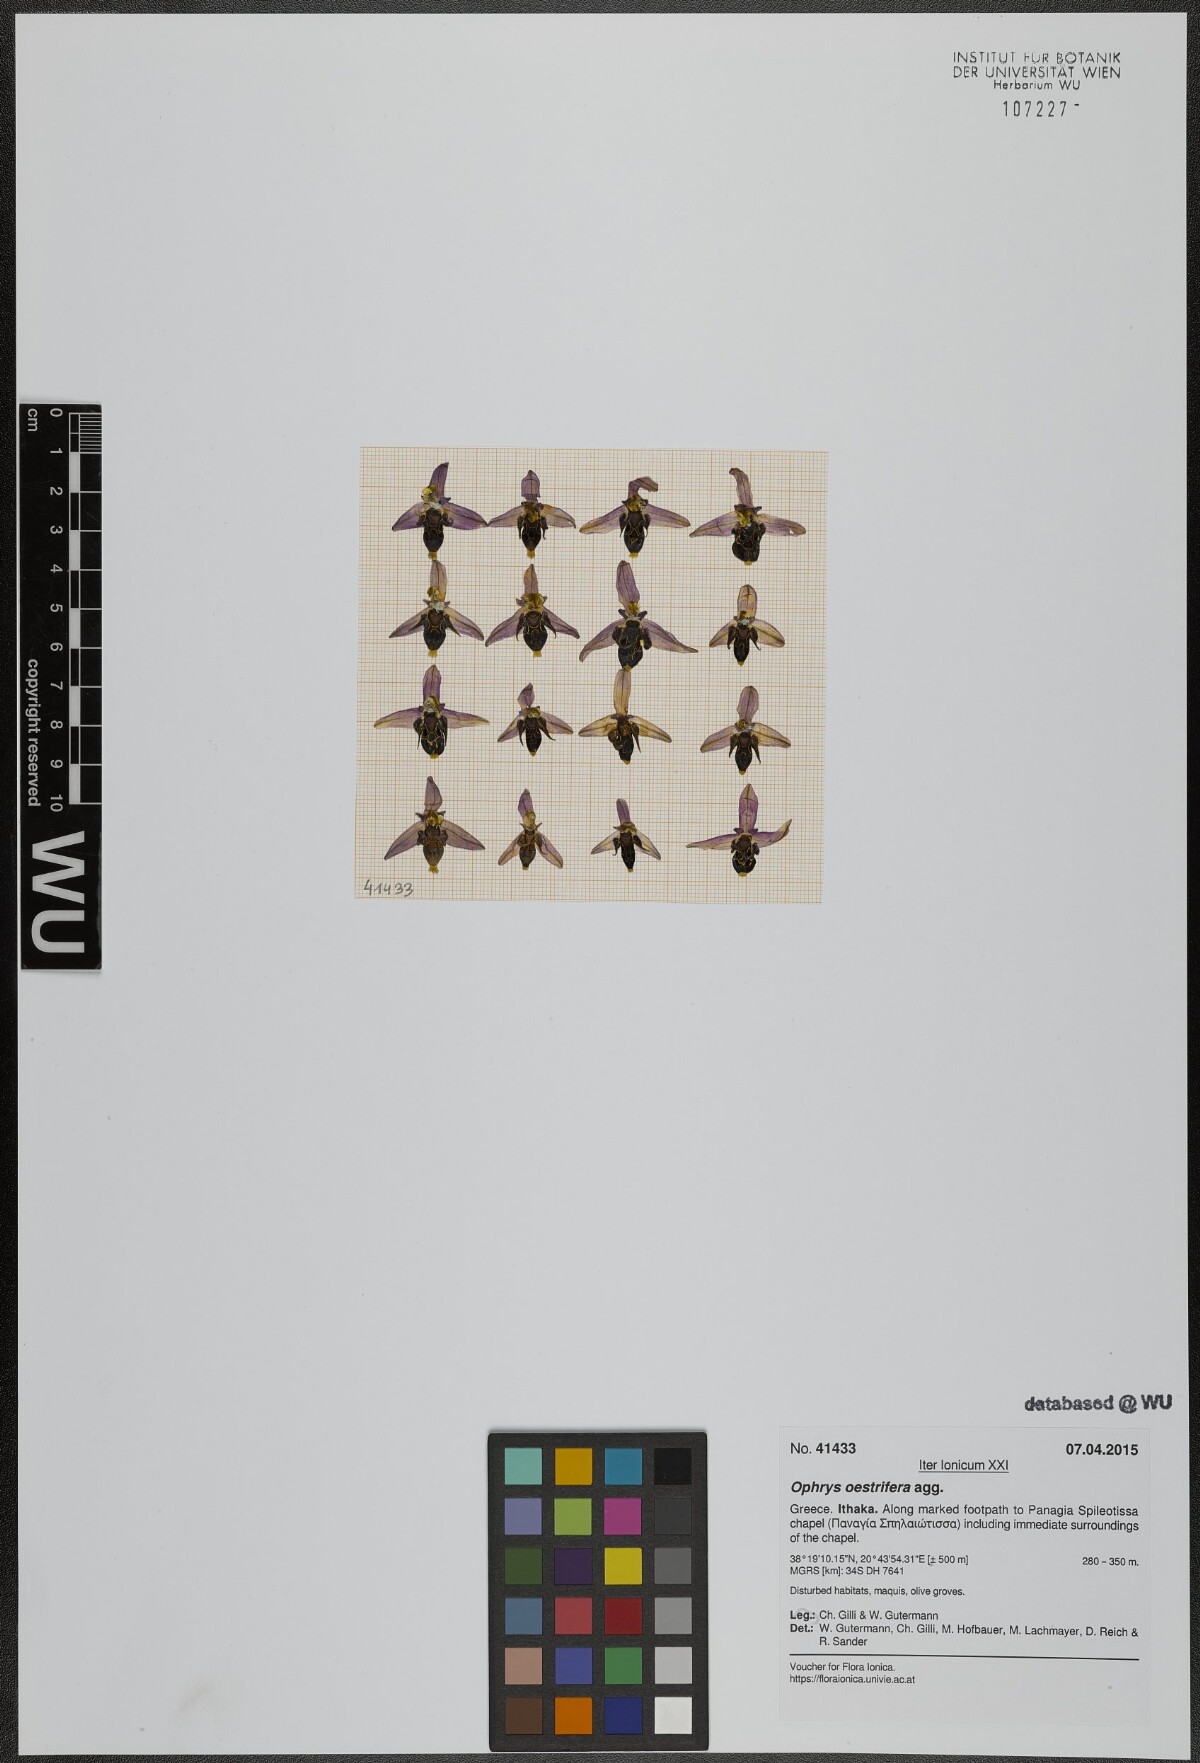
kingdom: Plantae
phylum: Tracheophyta
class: Liliopsida
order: Asparagales
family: Orchidaceae
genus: Ophrys
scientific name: Ophrys scolopax
